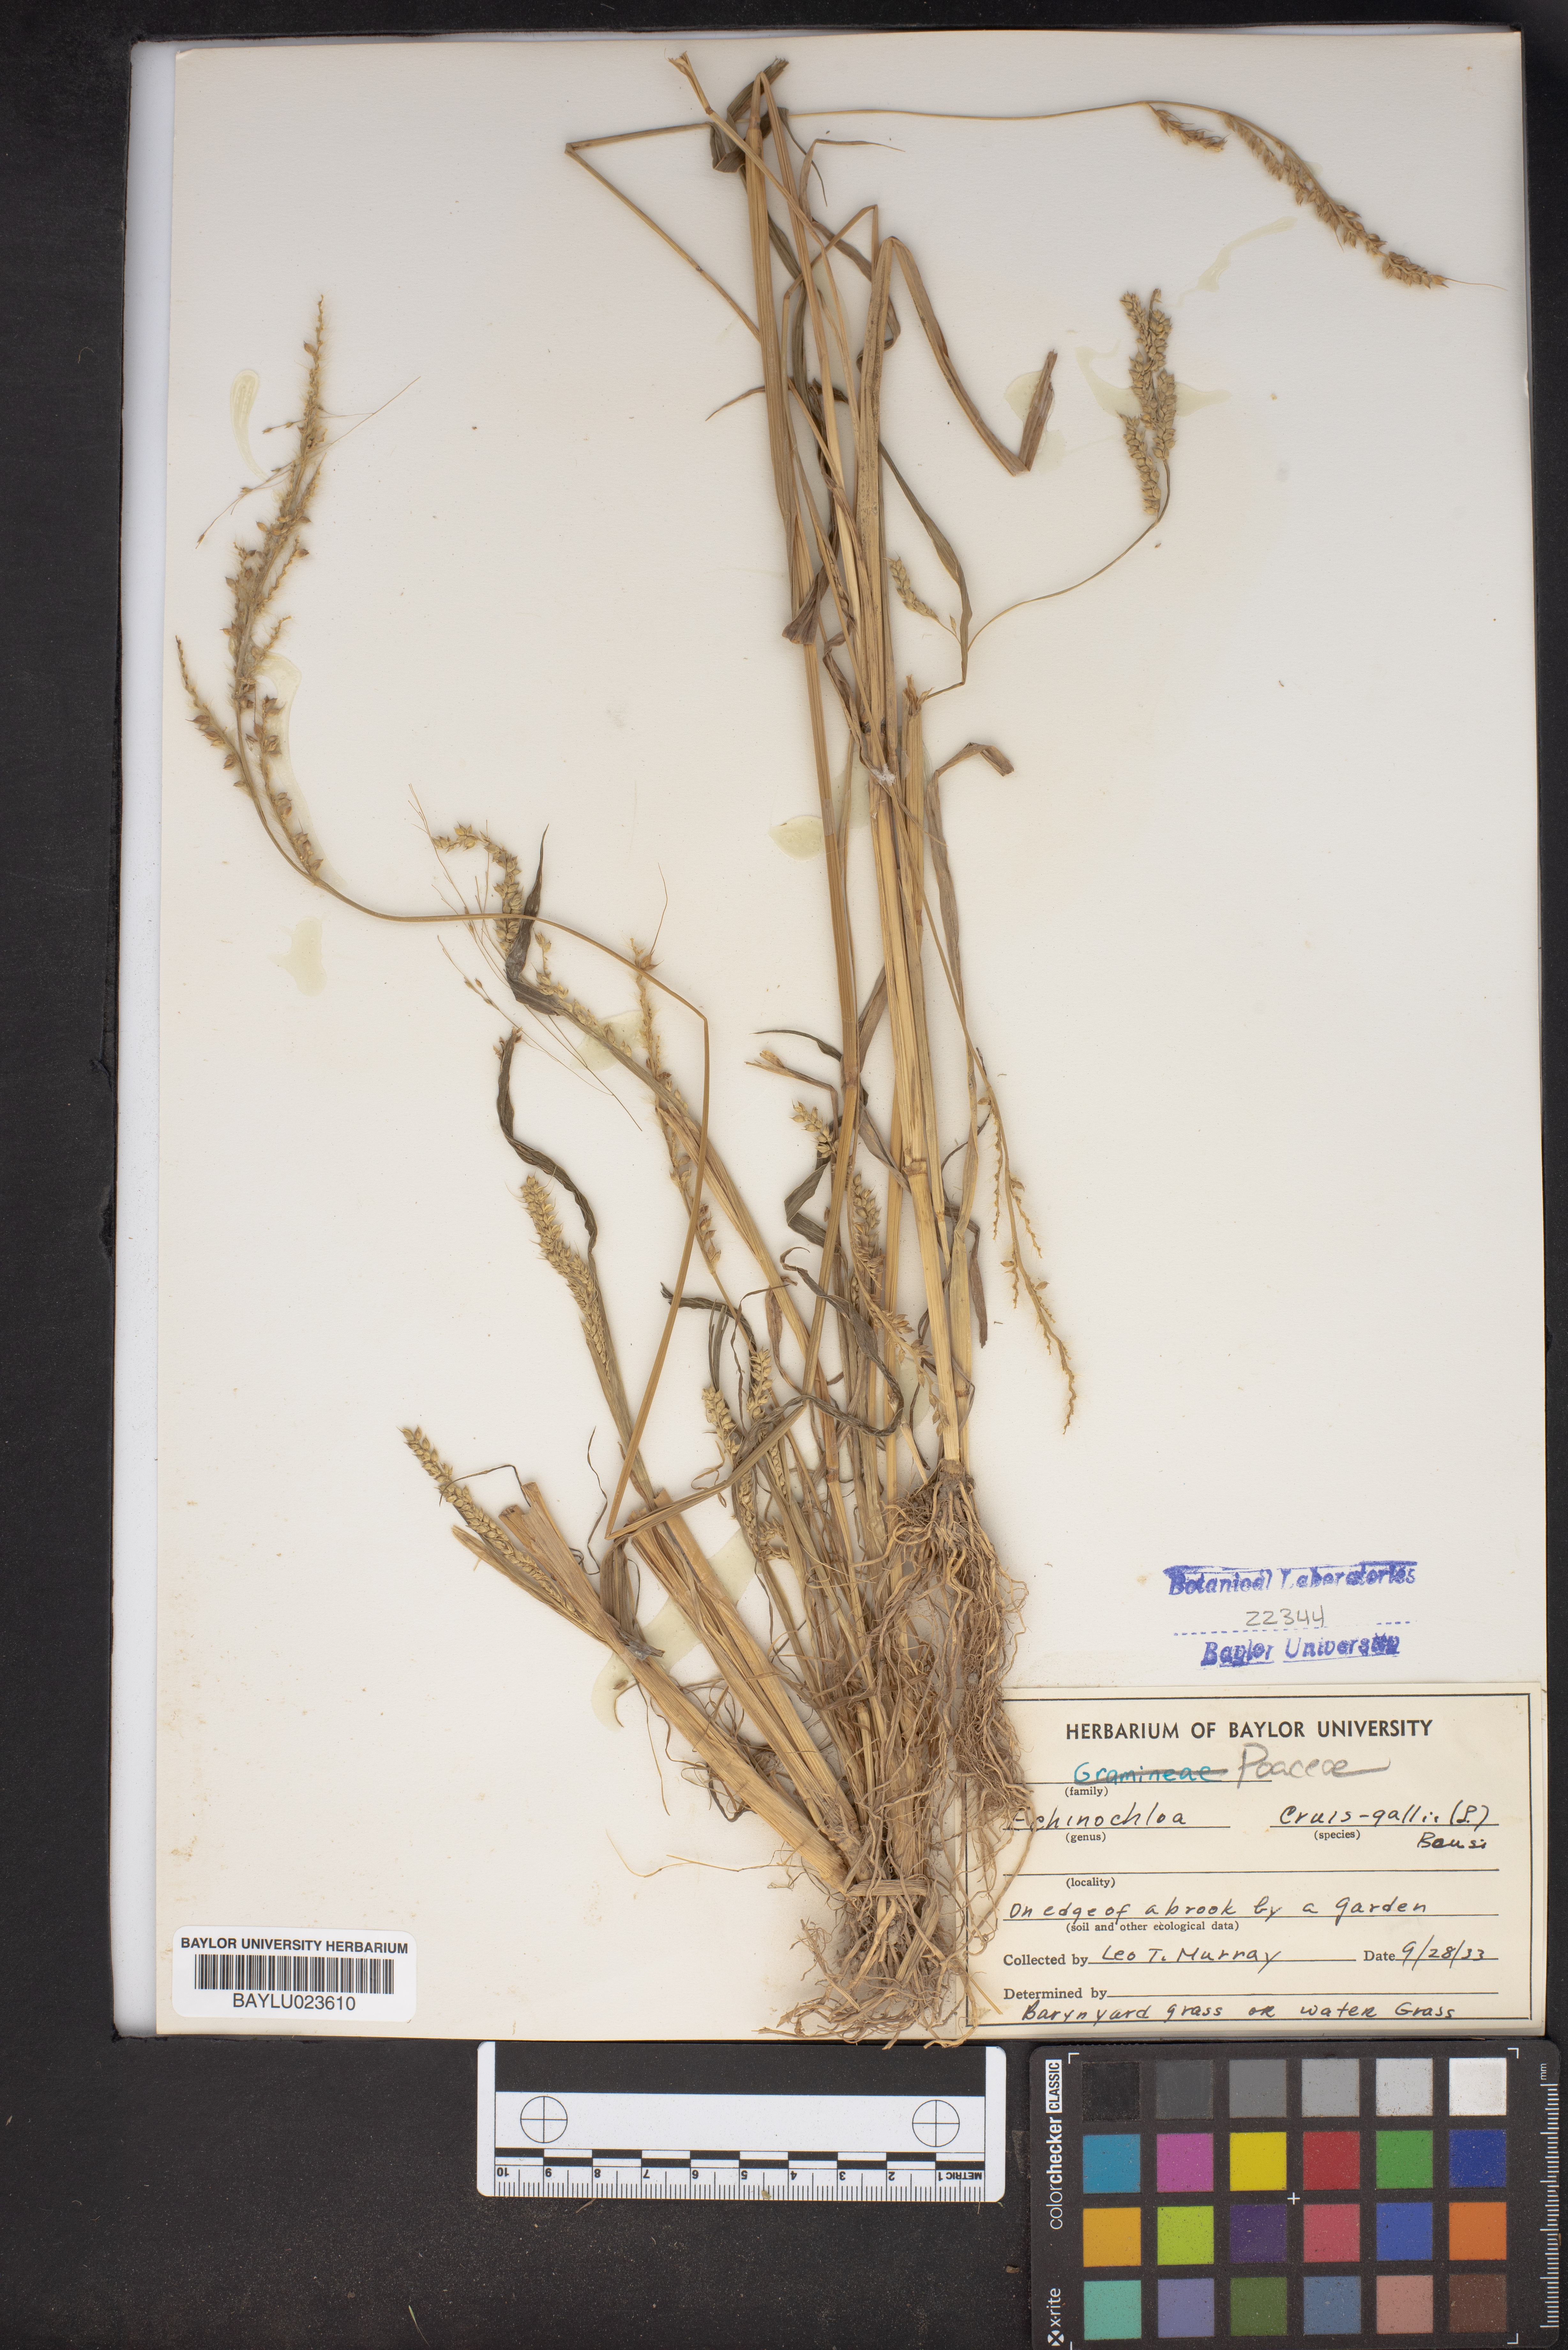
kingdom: Plantae
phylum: Tracheophyta
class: Liliopsida
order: Poales
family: Poaceae
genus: Echinochloa
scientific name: Echinochloa crus-galli
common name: Cockspur
